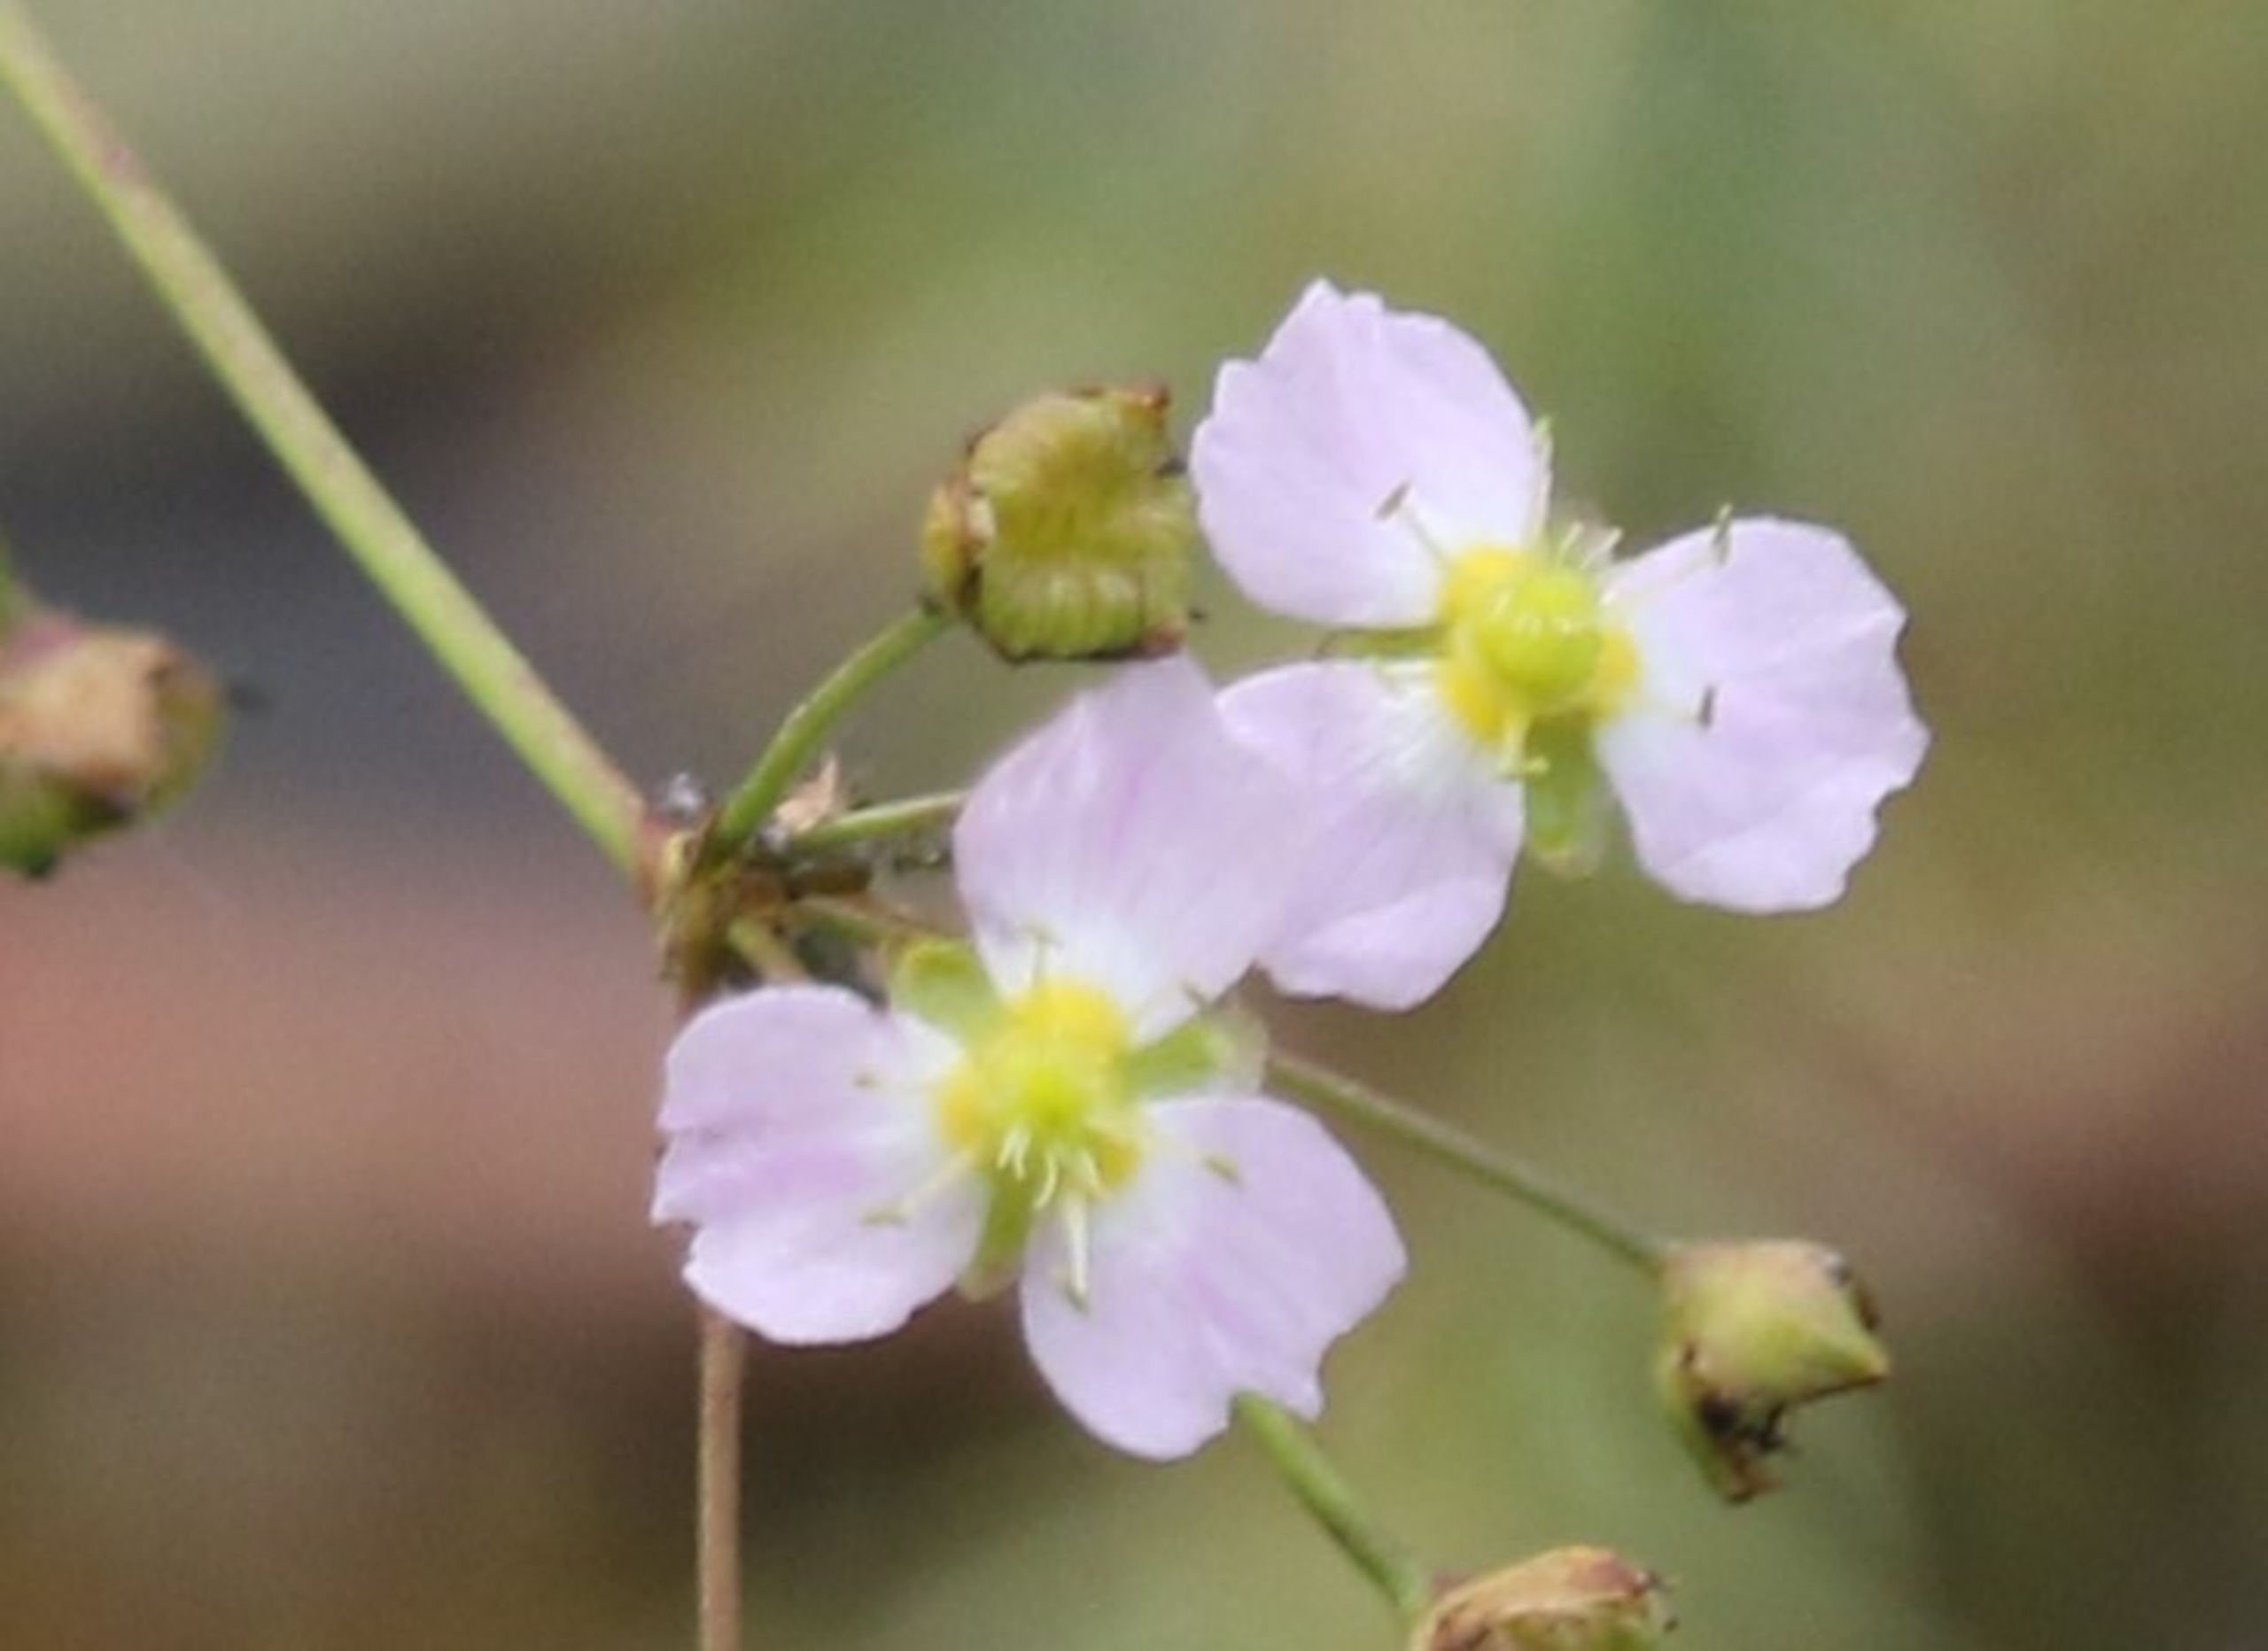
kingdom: Plantae
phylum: Tracheophyta
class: Liliopsida
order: Alismatales
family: Alismataceae
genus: Alisma
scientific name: Alisma lanceolatum
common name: Lancet-skeblad
